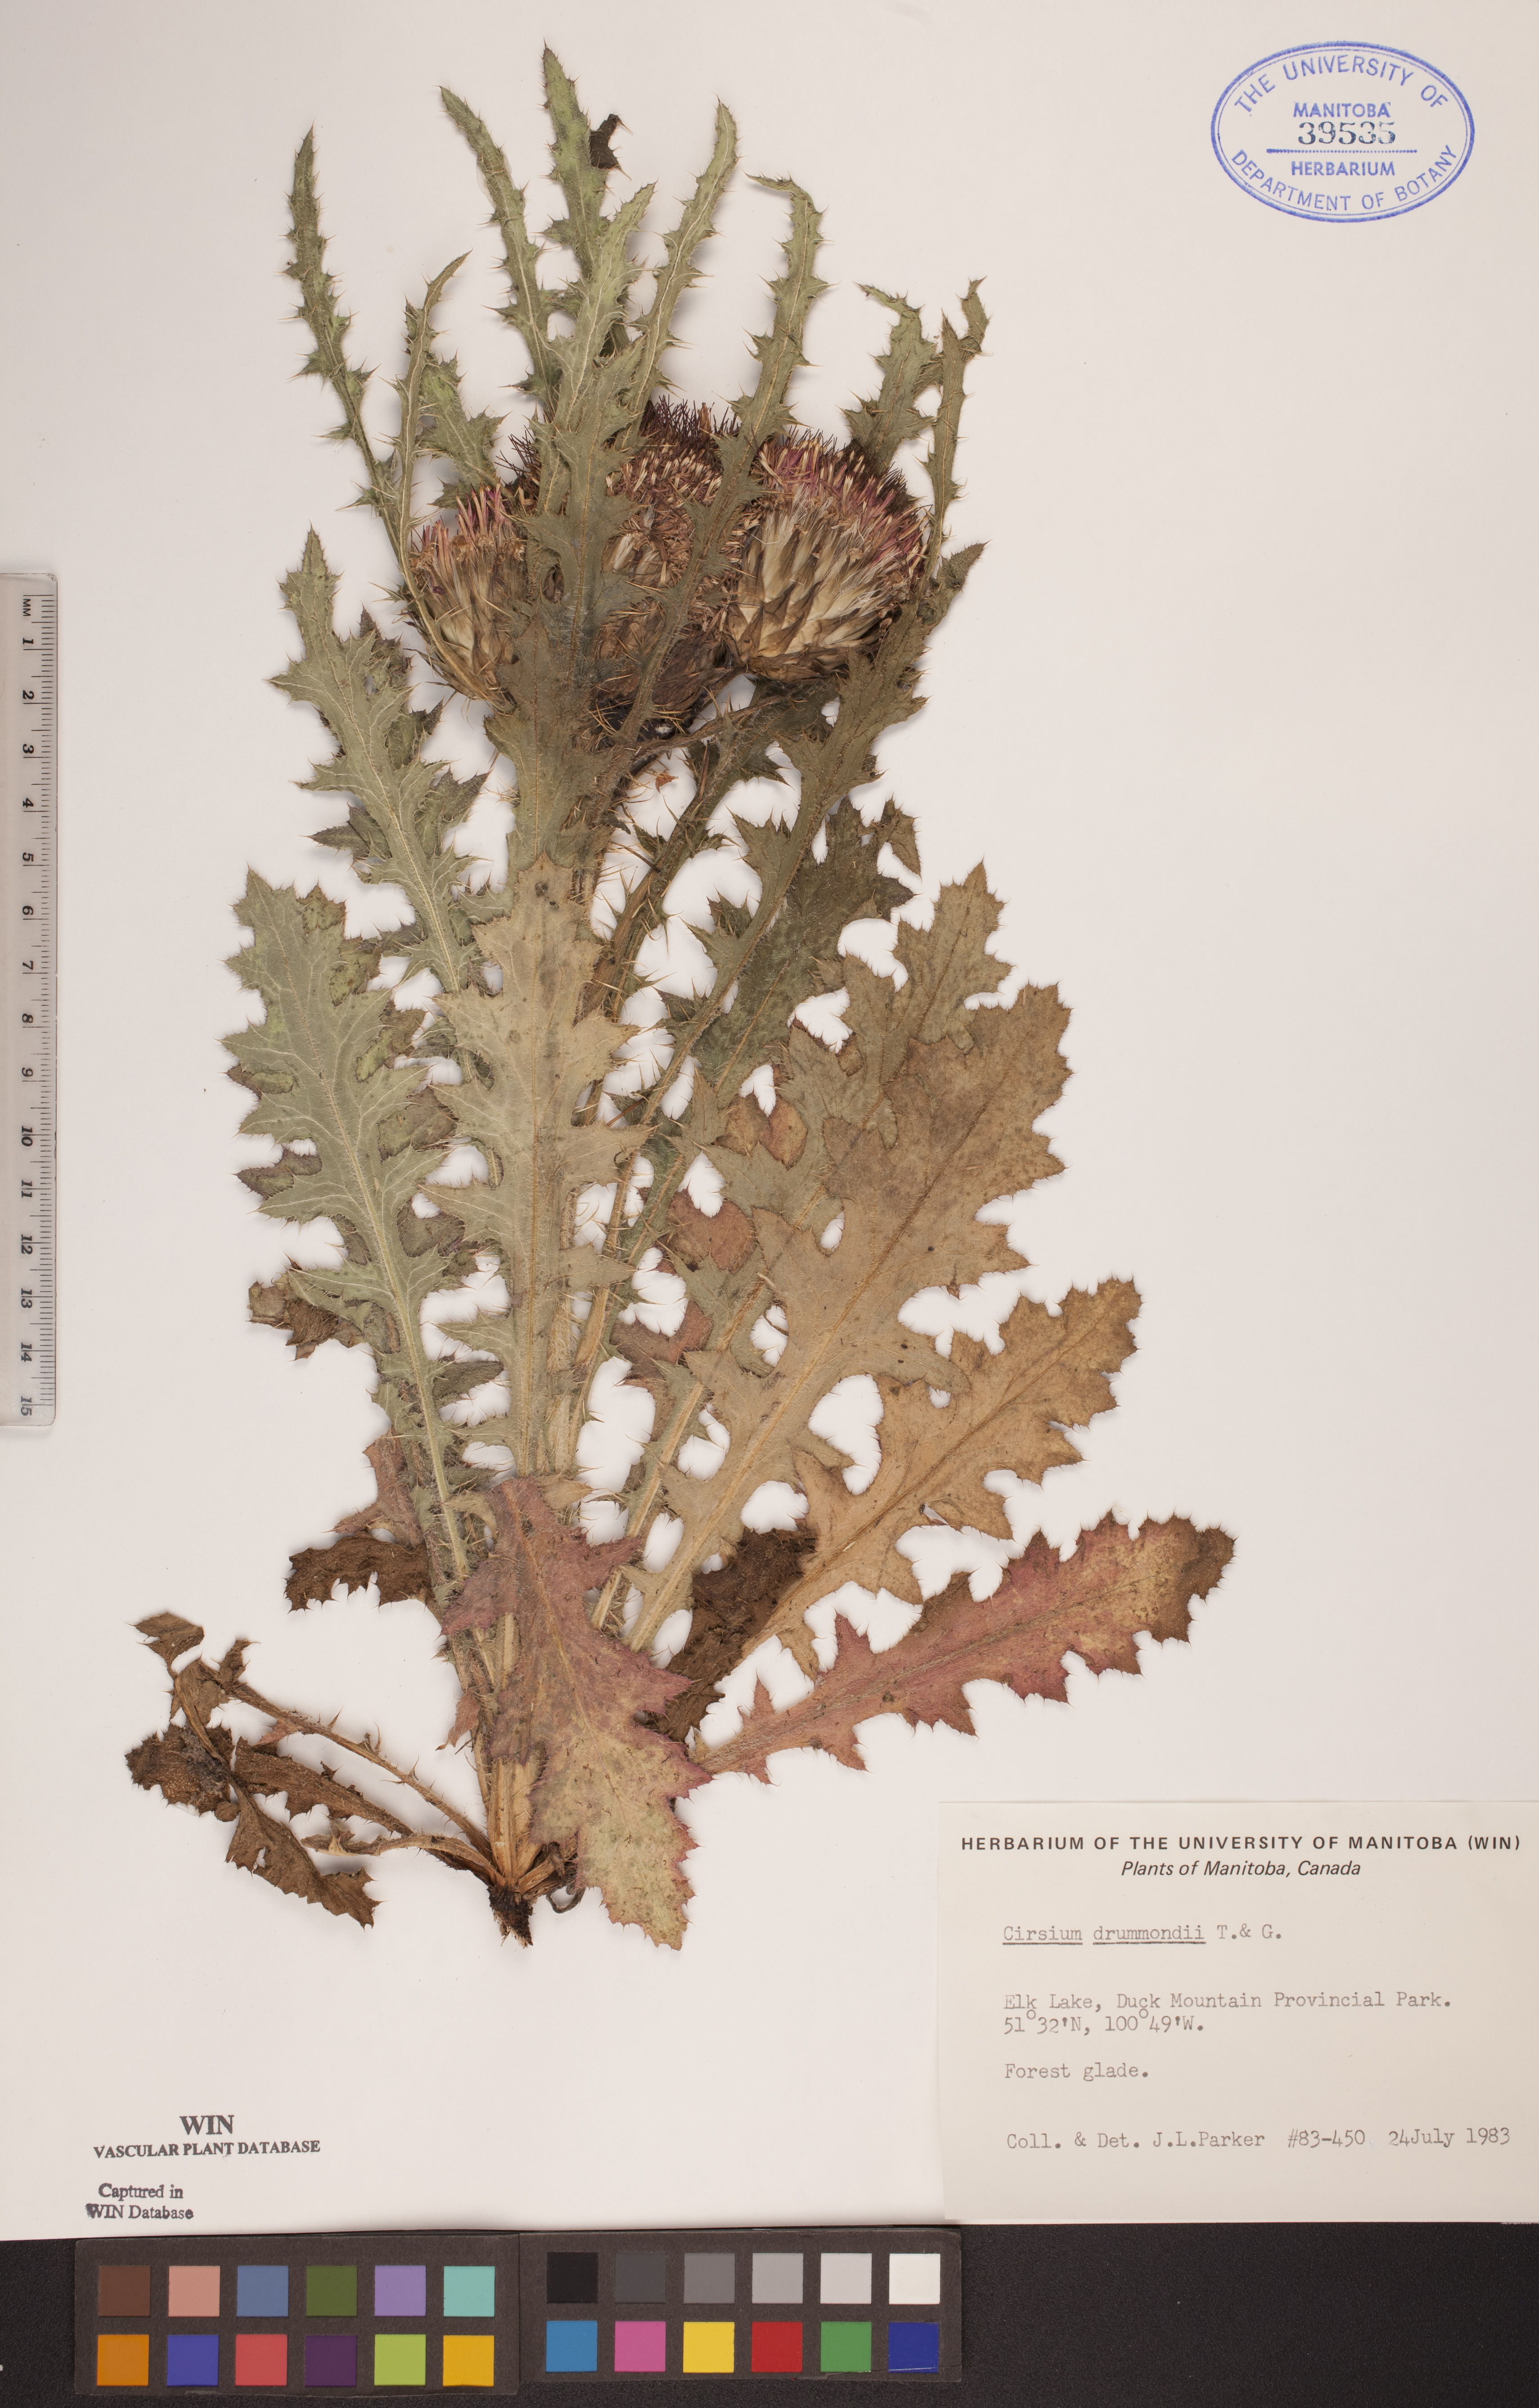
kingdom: Plantae
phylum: Tracheophyta
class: Magnoliopsida
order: Asterales
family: Asteraceae
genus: Cirsium
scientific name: Cirsium drummondii
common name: Drummond's thistle
